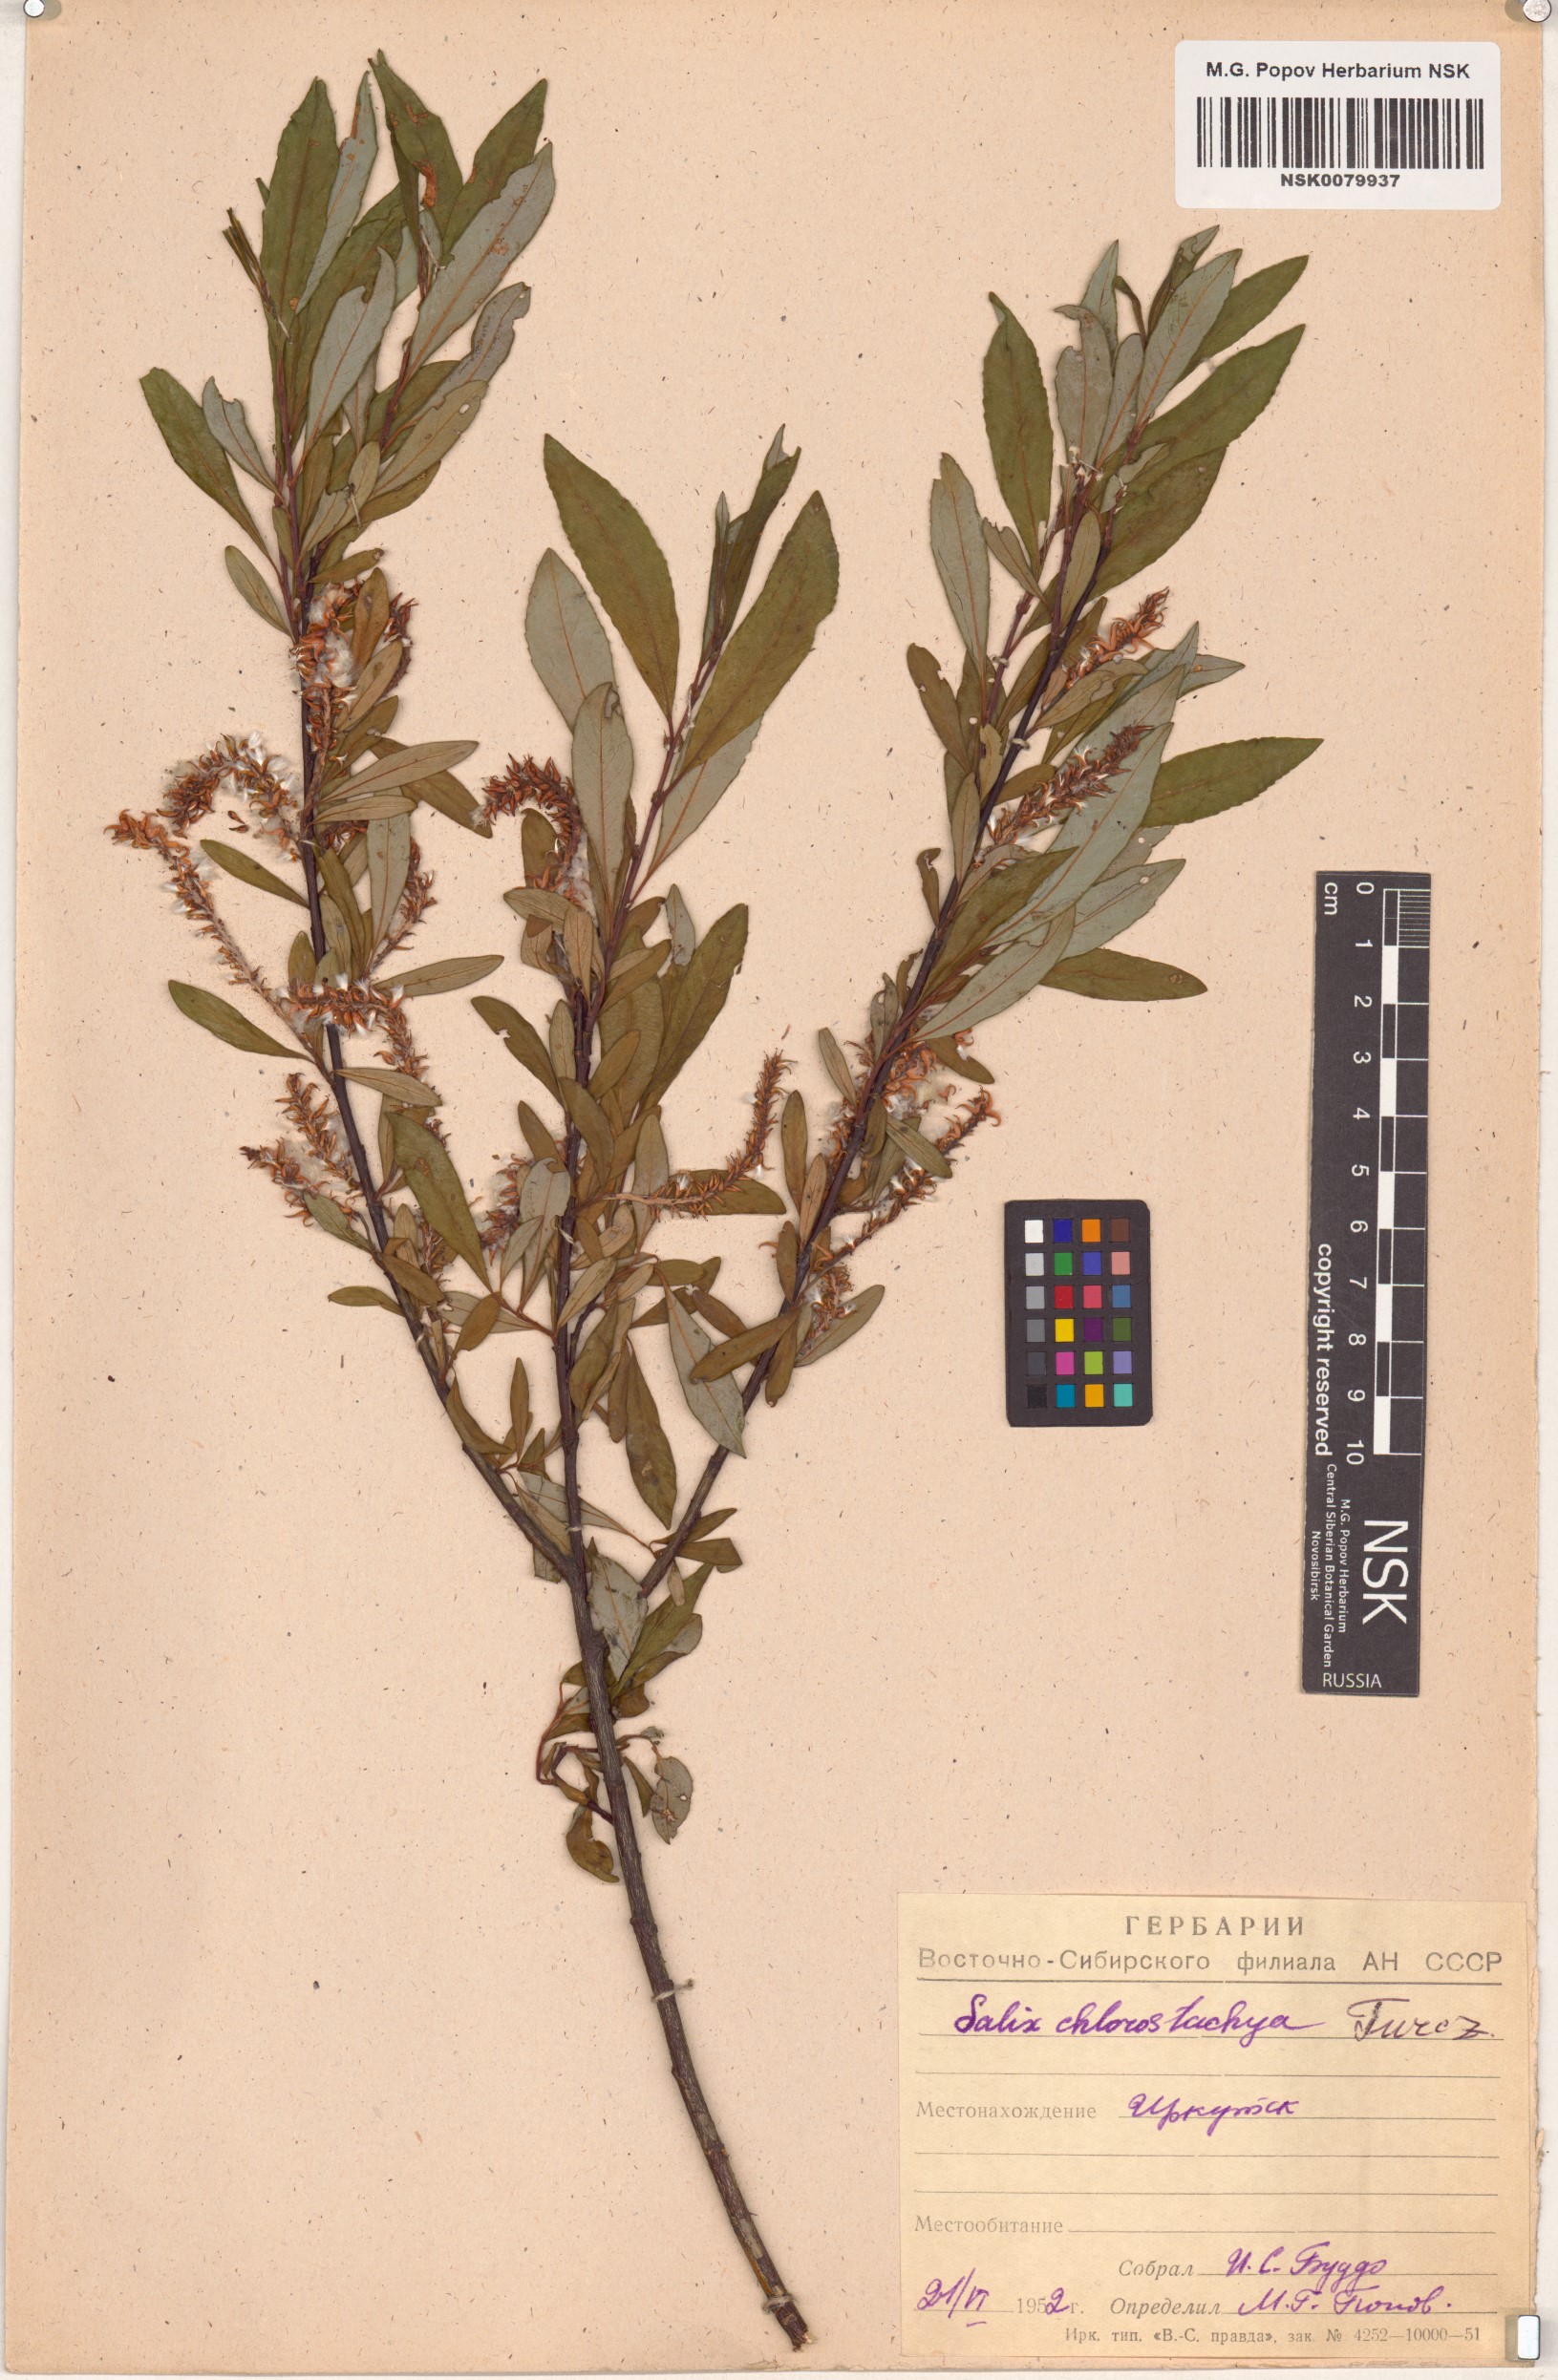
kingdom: Plantae
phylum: Tracheophyta
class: Magnoliopsida
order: Malpighiales
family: Salicaceae
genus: Salix
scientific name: Salix rhamnifolia
